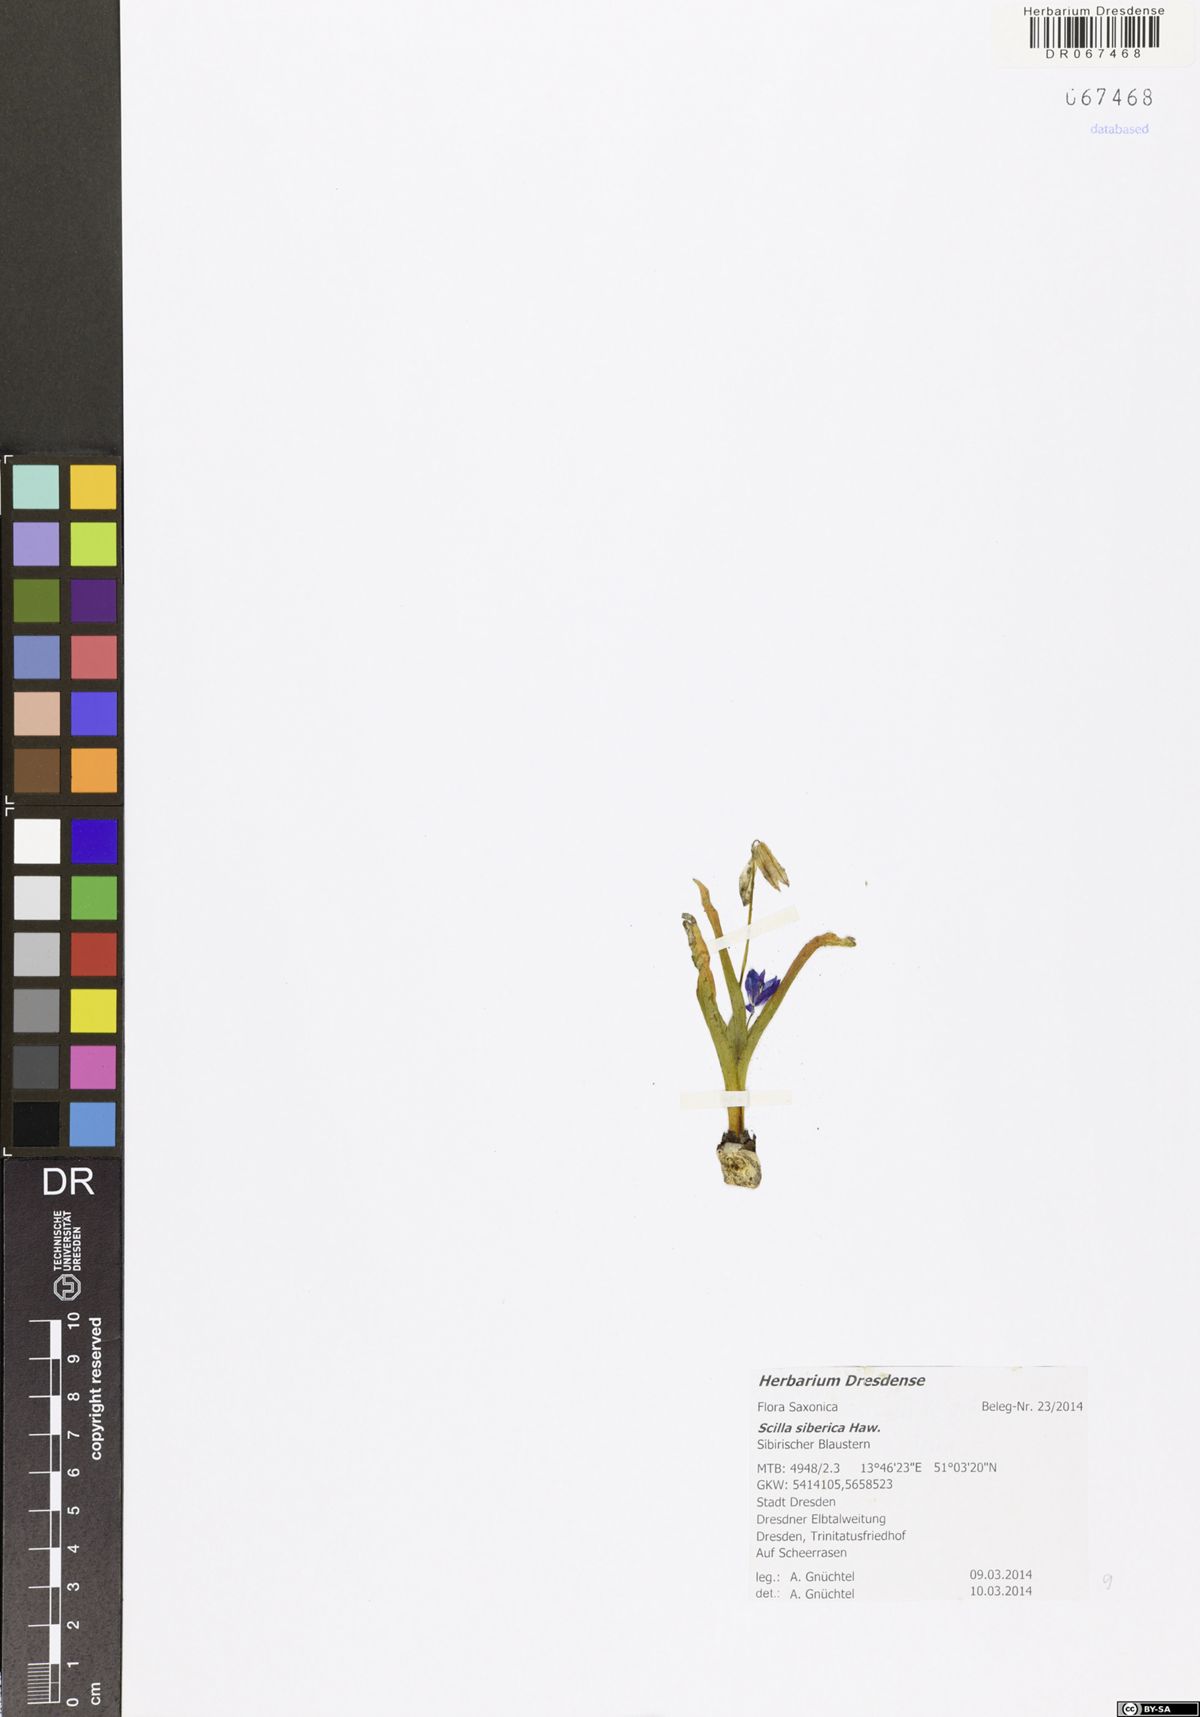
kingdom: Plantae
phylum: Tracheophyta
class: Liliopsida
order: Asparagales
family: Asparagaceae
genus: Scilla
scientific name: Scilla siberica
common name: Siberian squill
